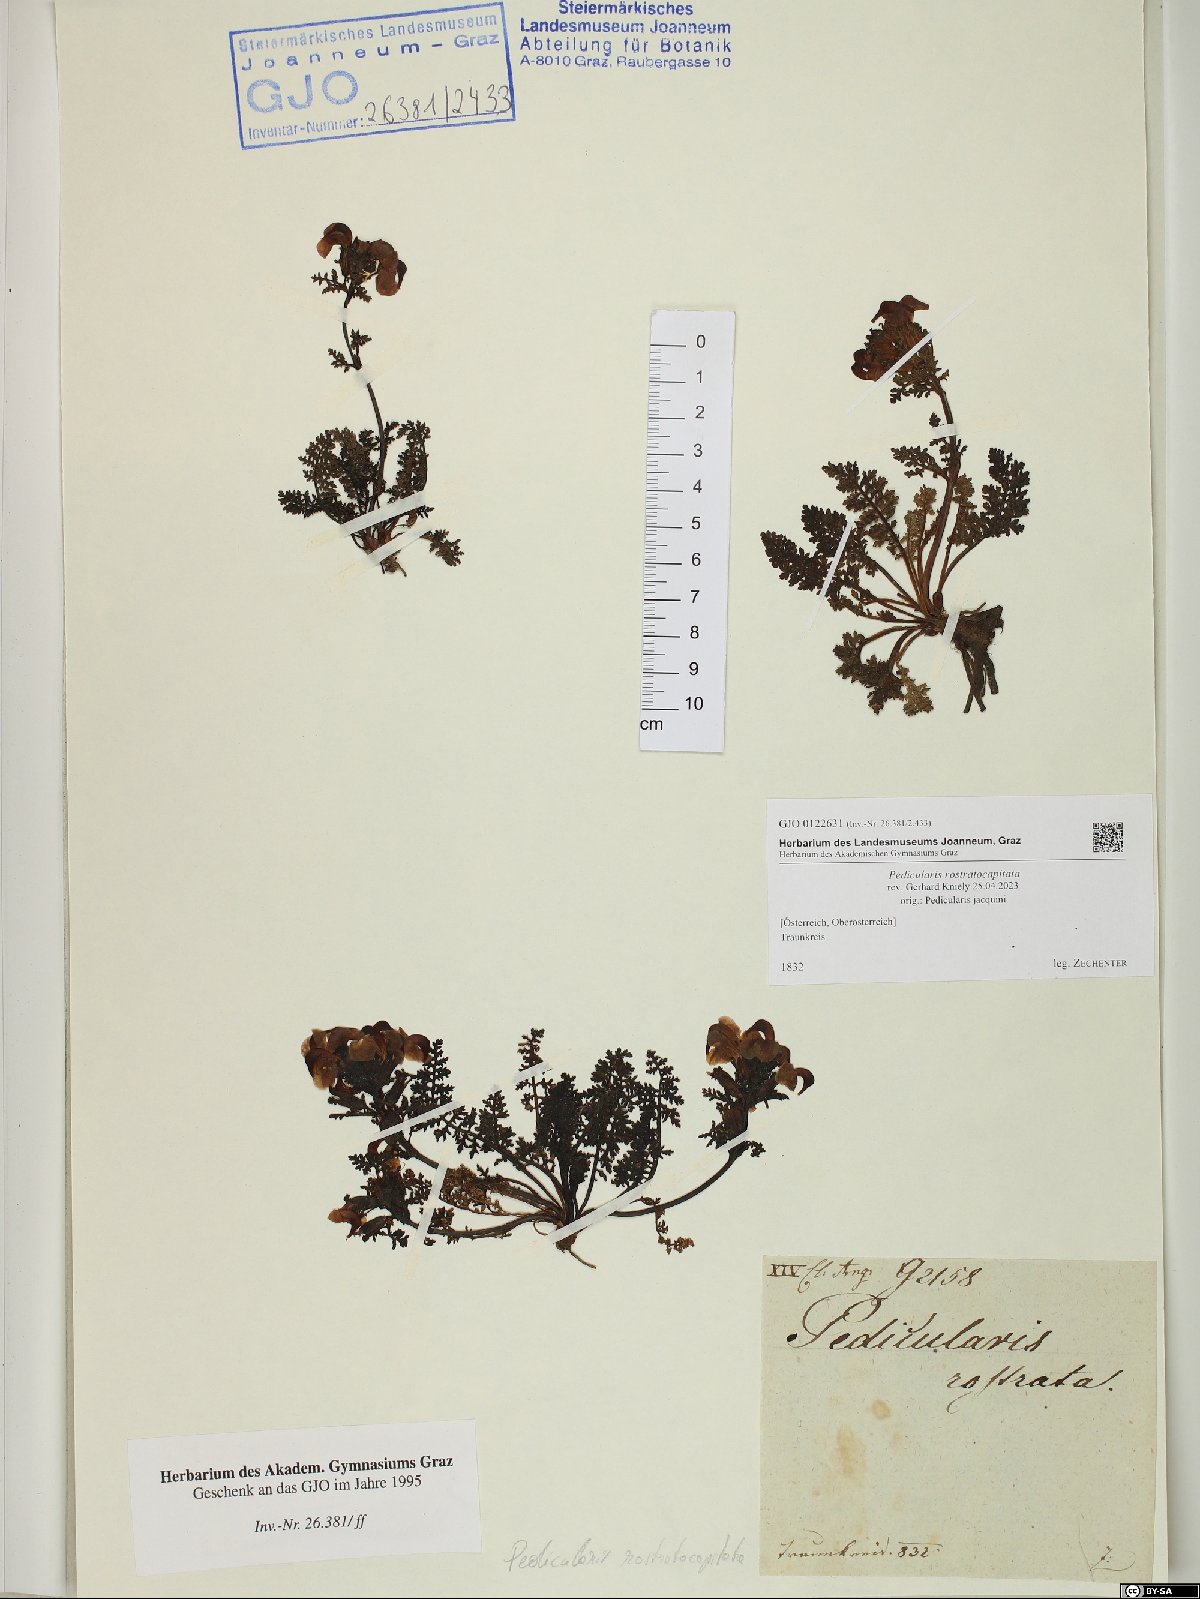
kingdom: Plantae
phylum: Tracheophyta
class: Magnoliopsida
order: Lamiales
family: Orobanchaceae
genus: Pedicularis
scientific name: Pedicularis rostratocapitata
